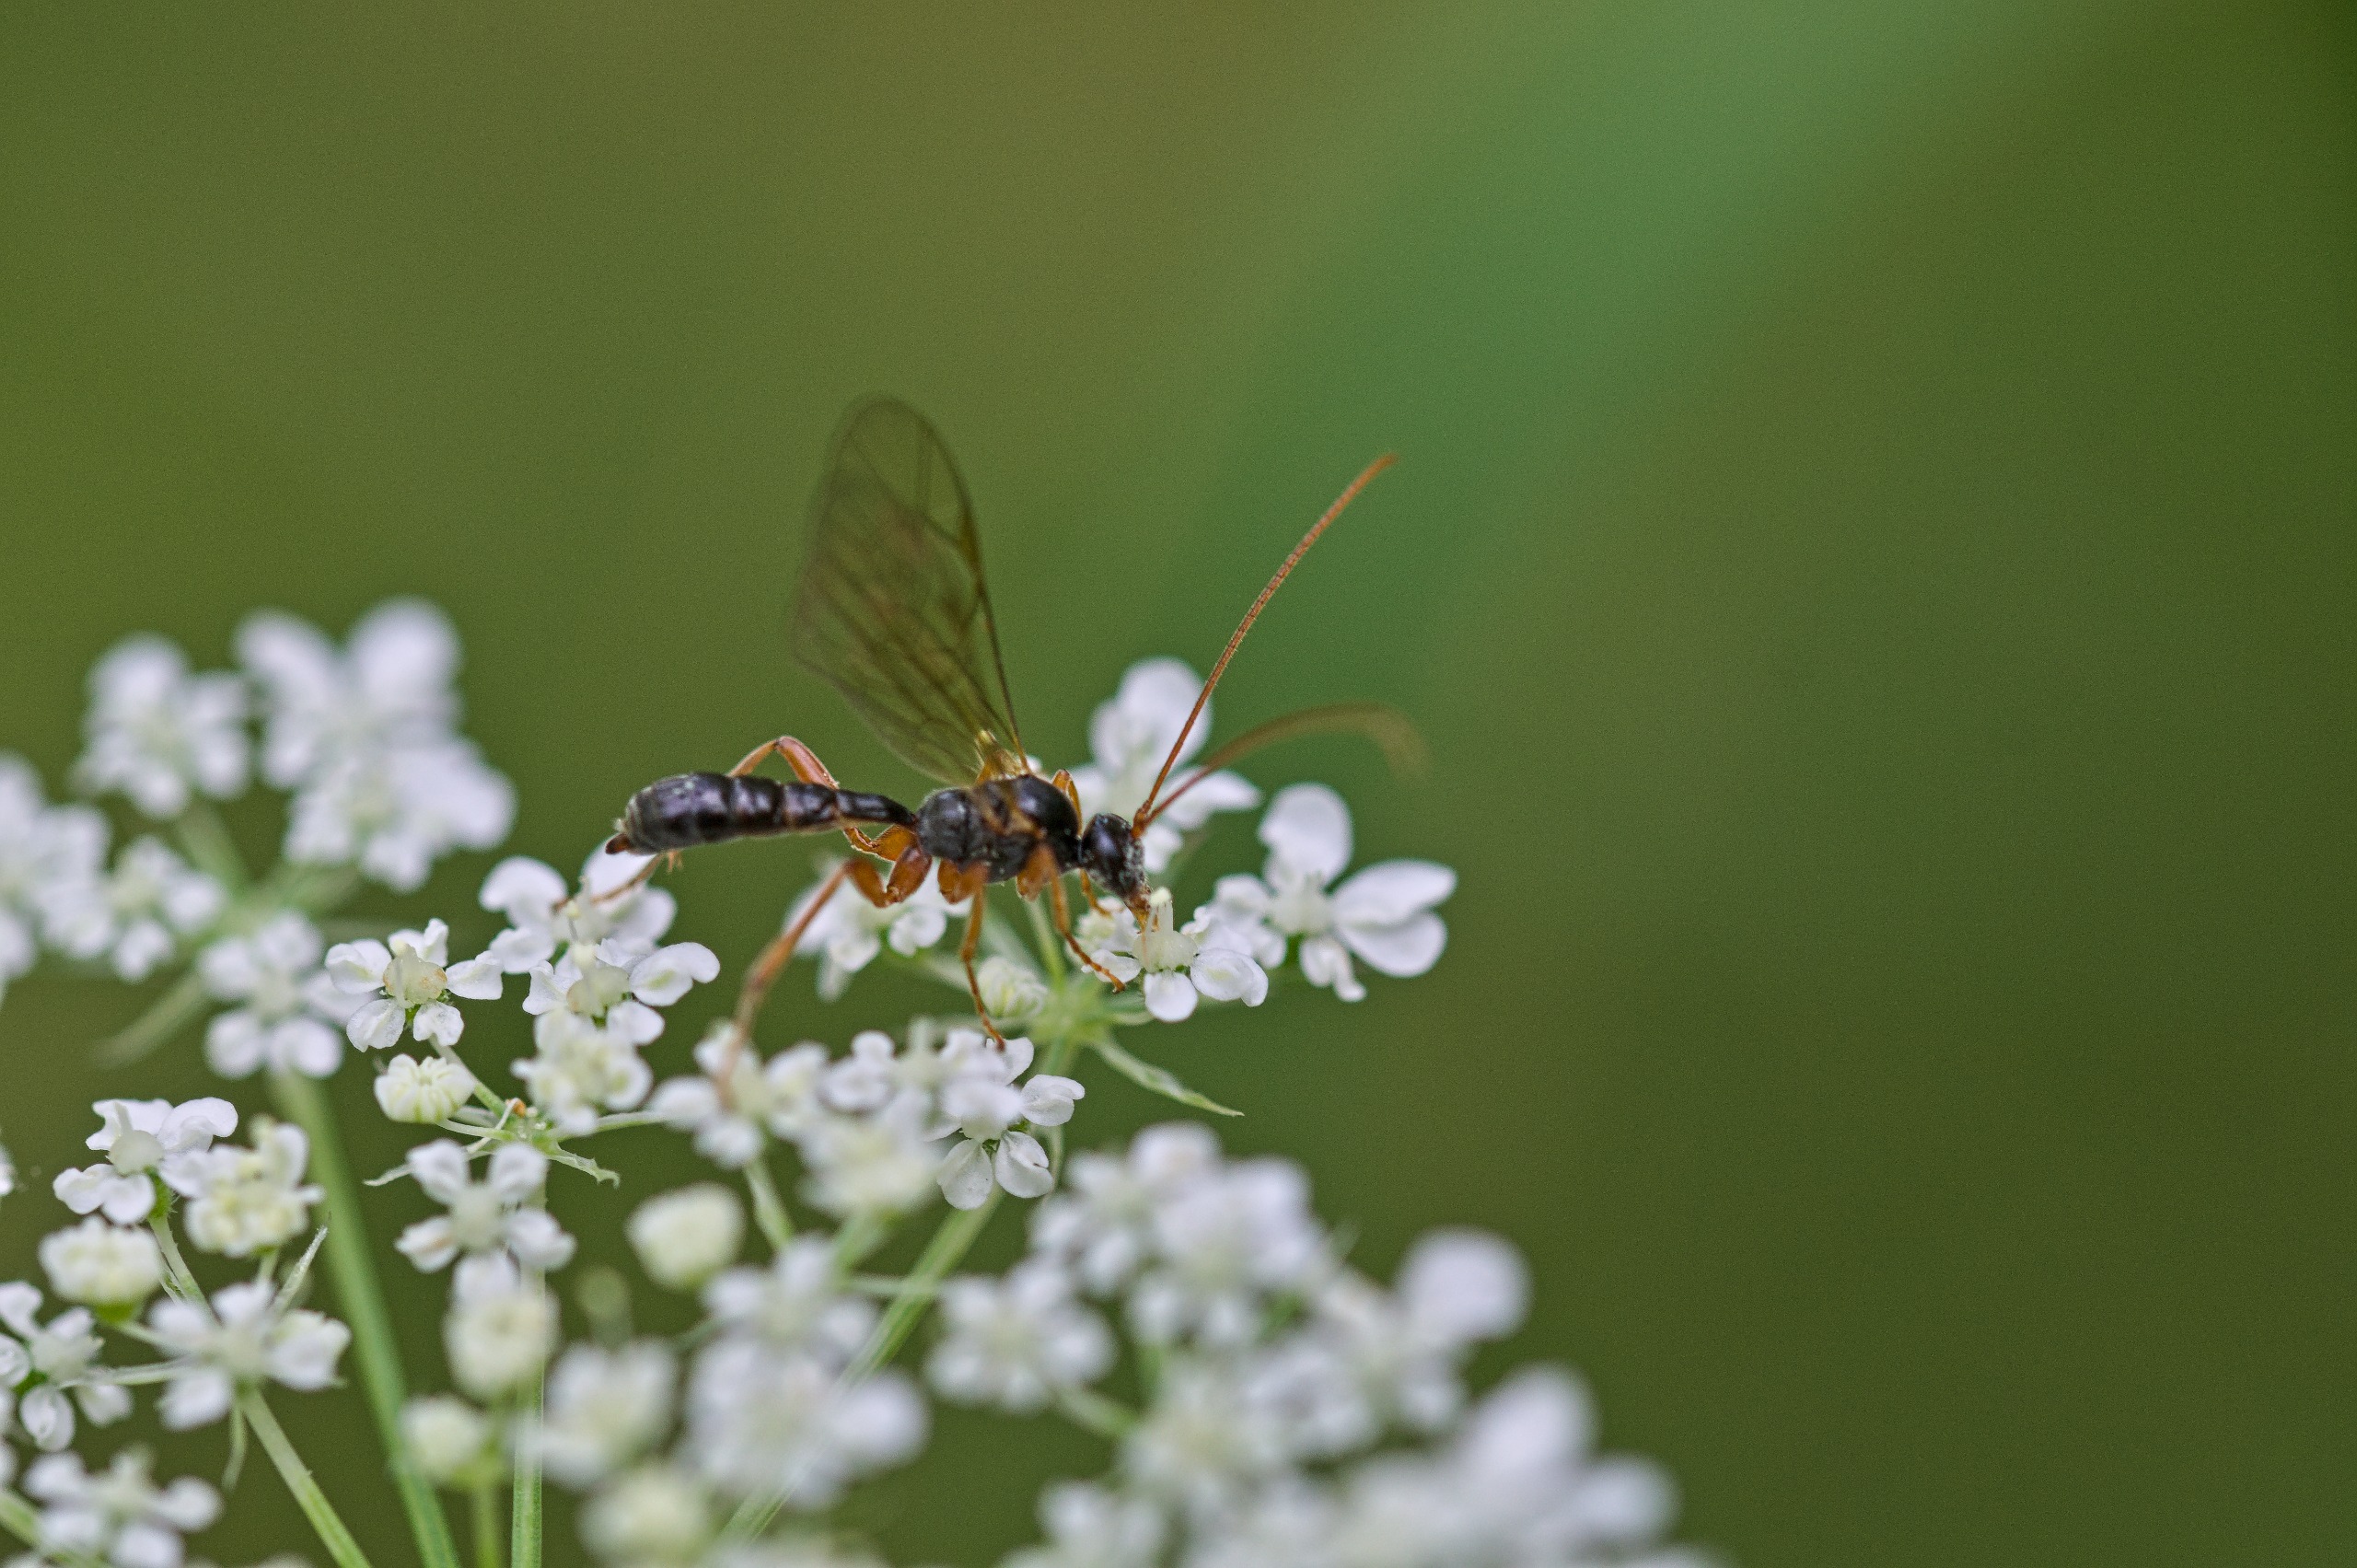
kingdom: Animalia
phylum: Arthropoda
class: Insecta
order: Hymenoptera
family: Ichneumonidae
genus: Dyspetes
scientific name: Dyspetes luteomarginatus
